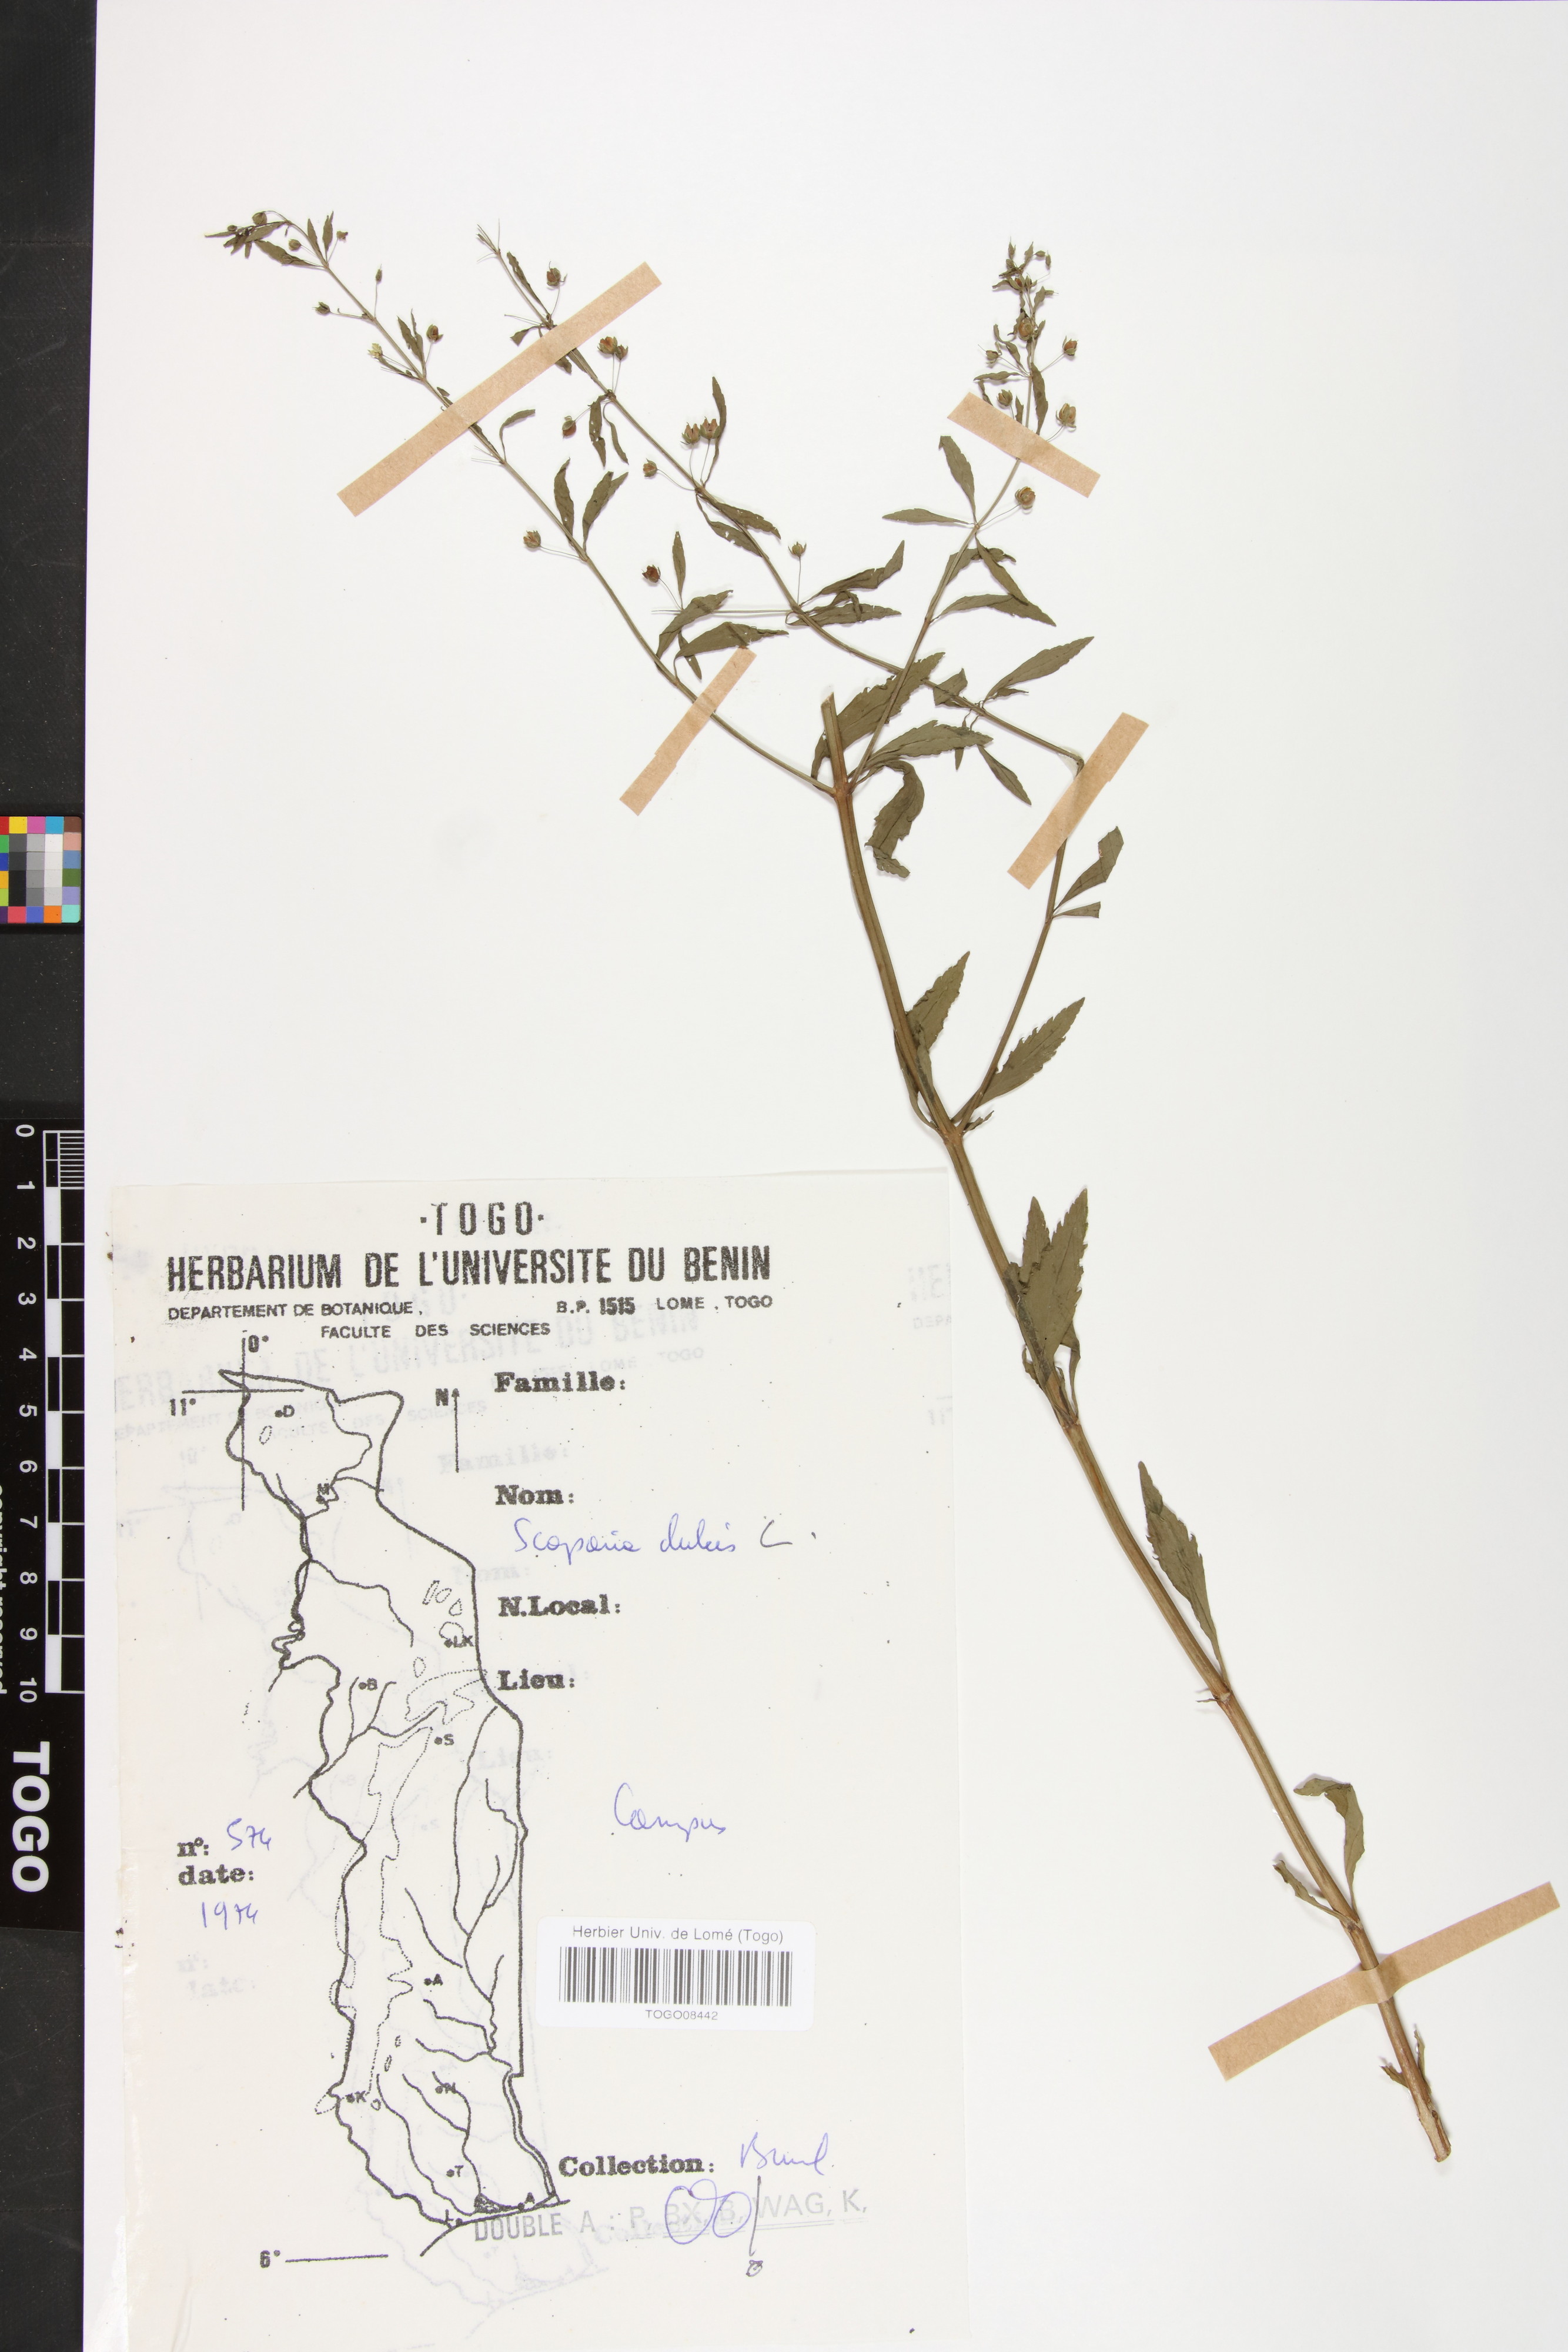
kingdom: Plantae
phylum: Tracheophyta
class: Magnoliopsida
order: Lamiales
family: Plantaginaceae
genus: Scoparia
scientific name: Scoparia dulcis
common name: Scoparia-weed
